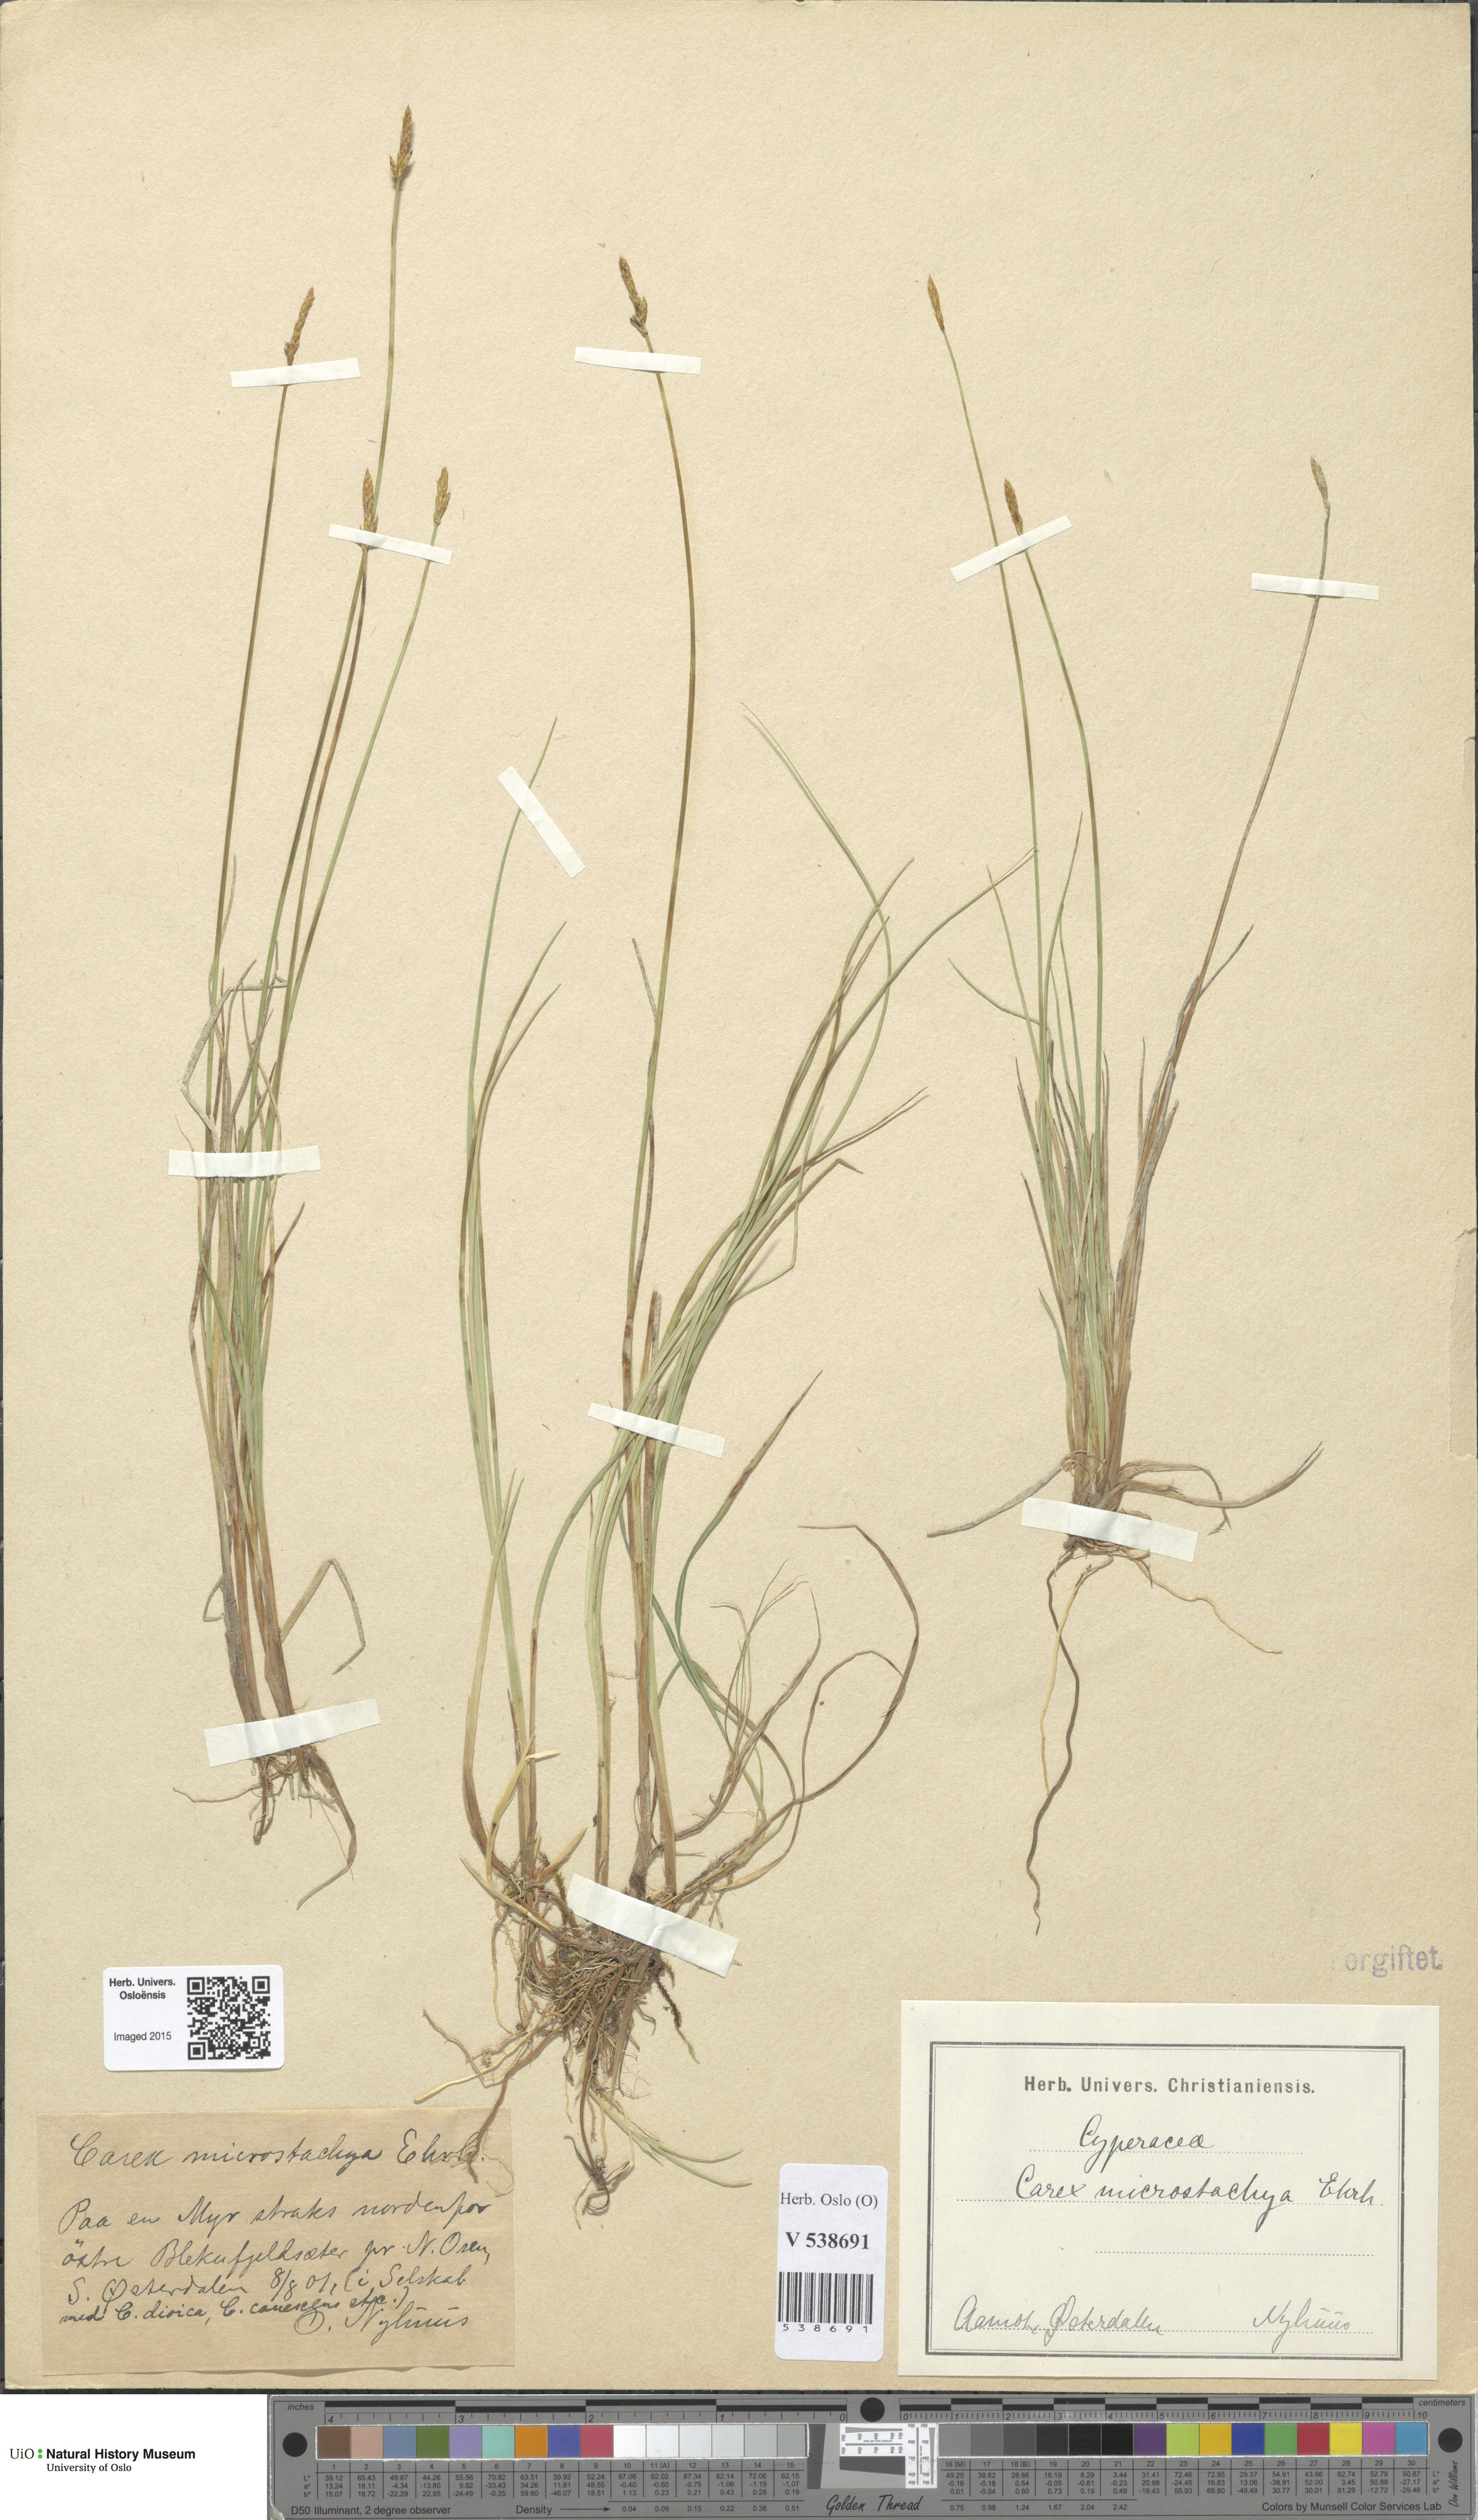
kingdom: Plantae
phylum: Tracheophyta
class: Liliopsida
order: Poales
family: Cyperaceae
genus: Carex
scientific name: Carex
